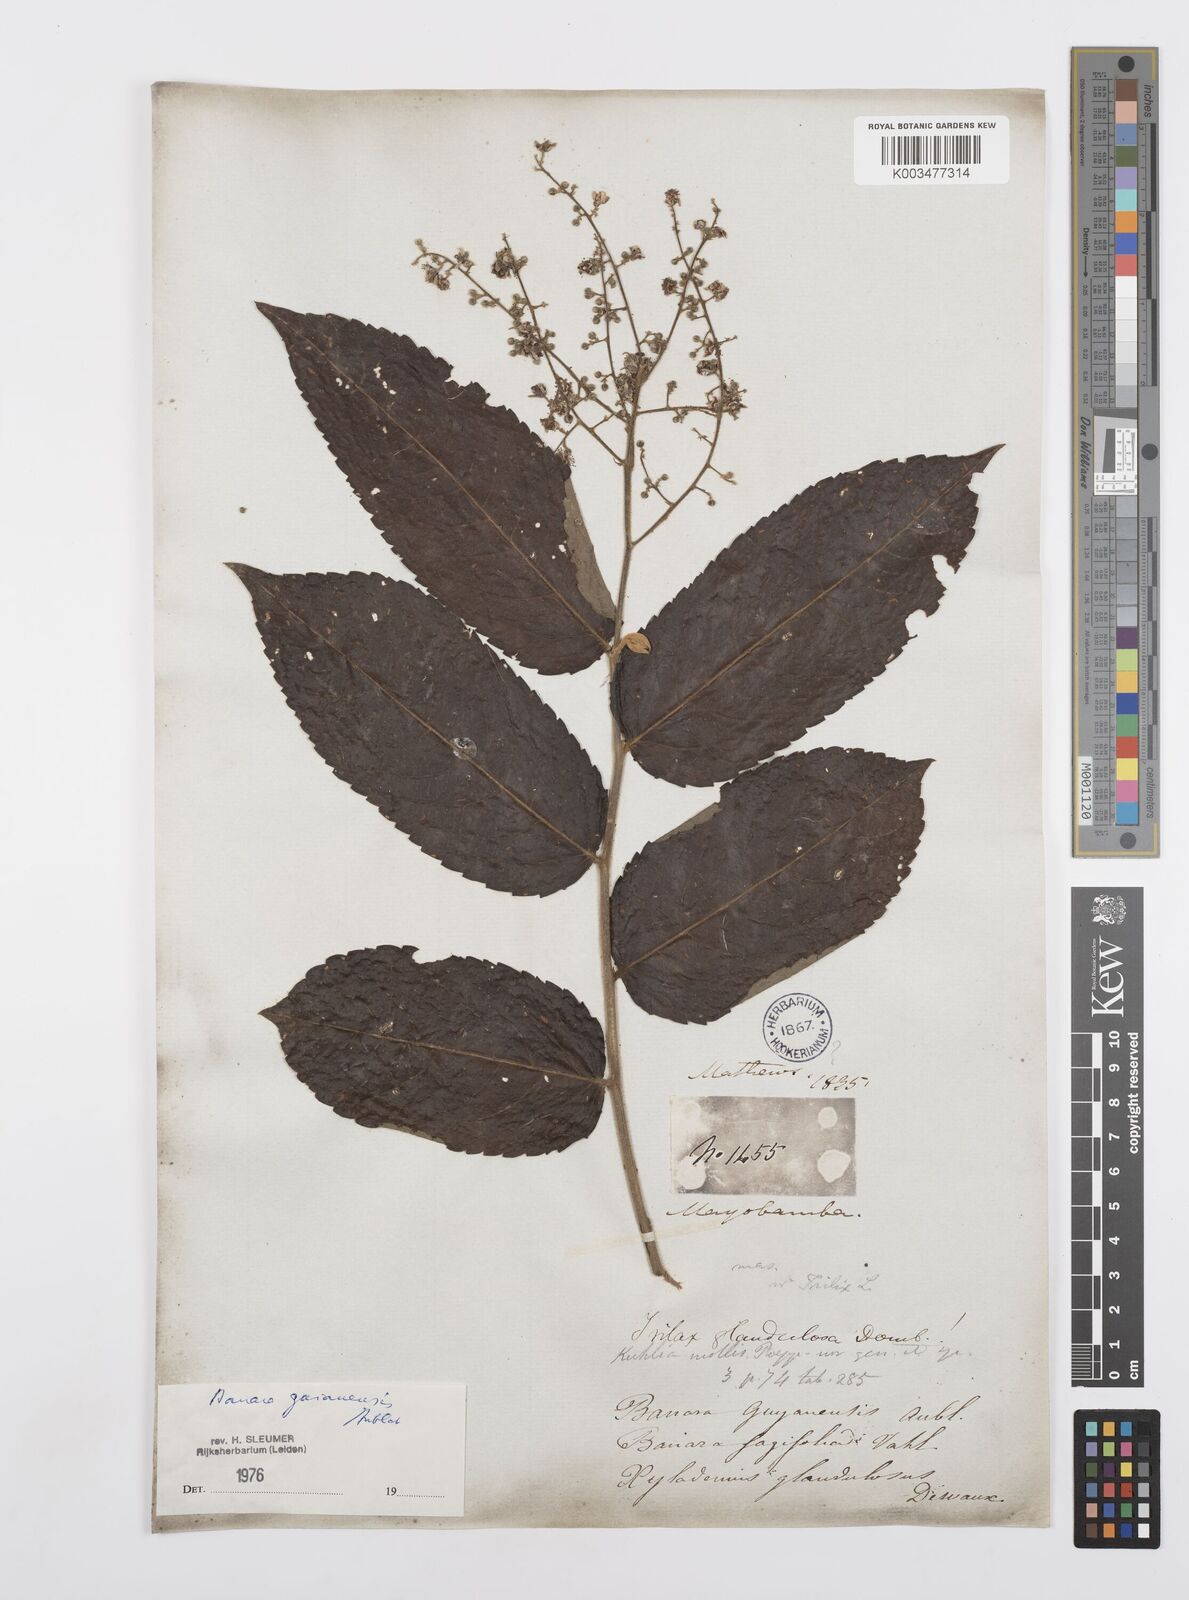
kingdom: Plantae
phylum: Tracheophyta
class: Magnoliopsida
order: Malpighiales
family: Salicaceae
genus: Banara
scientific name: Banara guianensis
